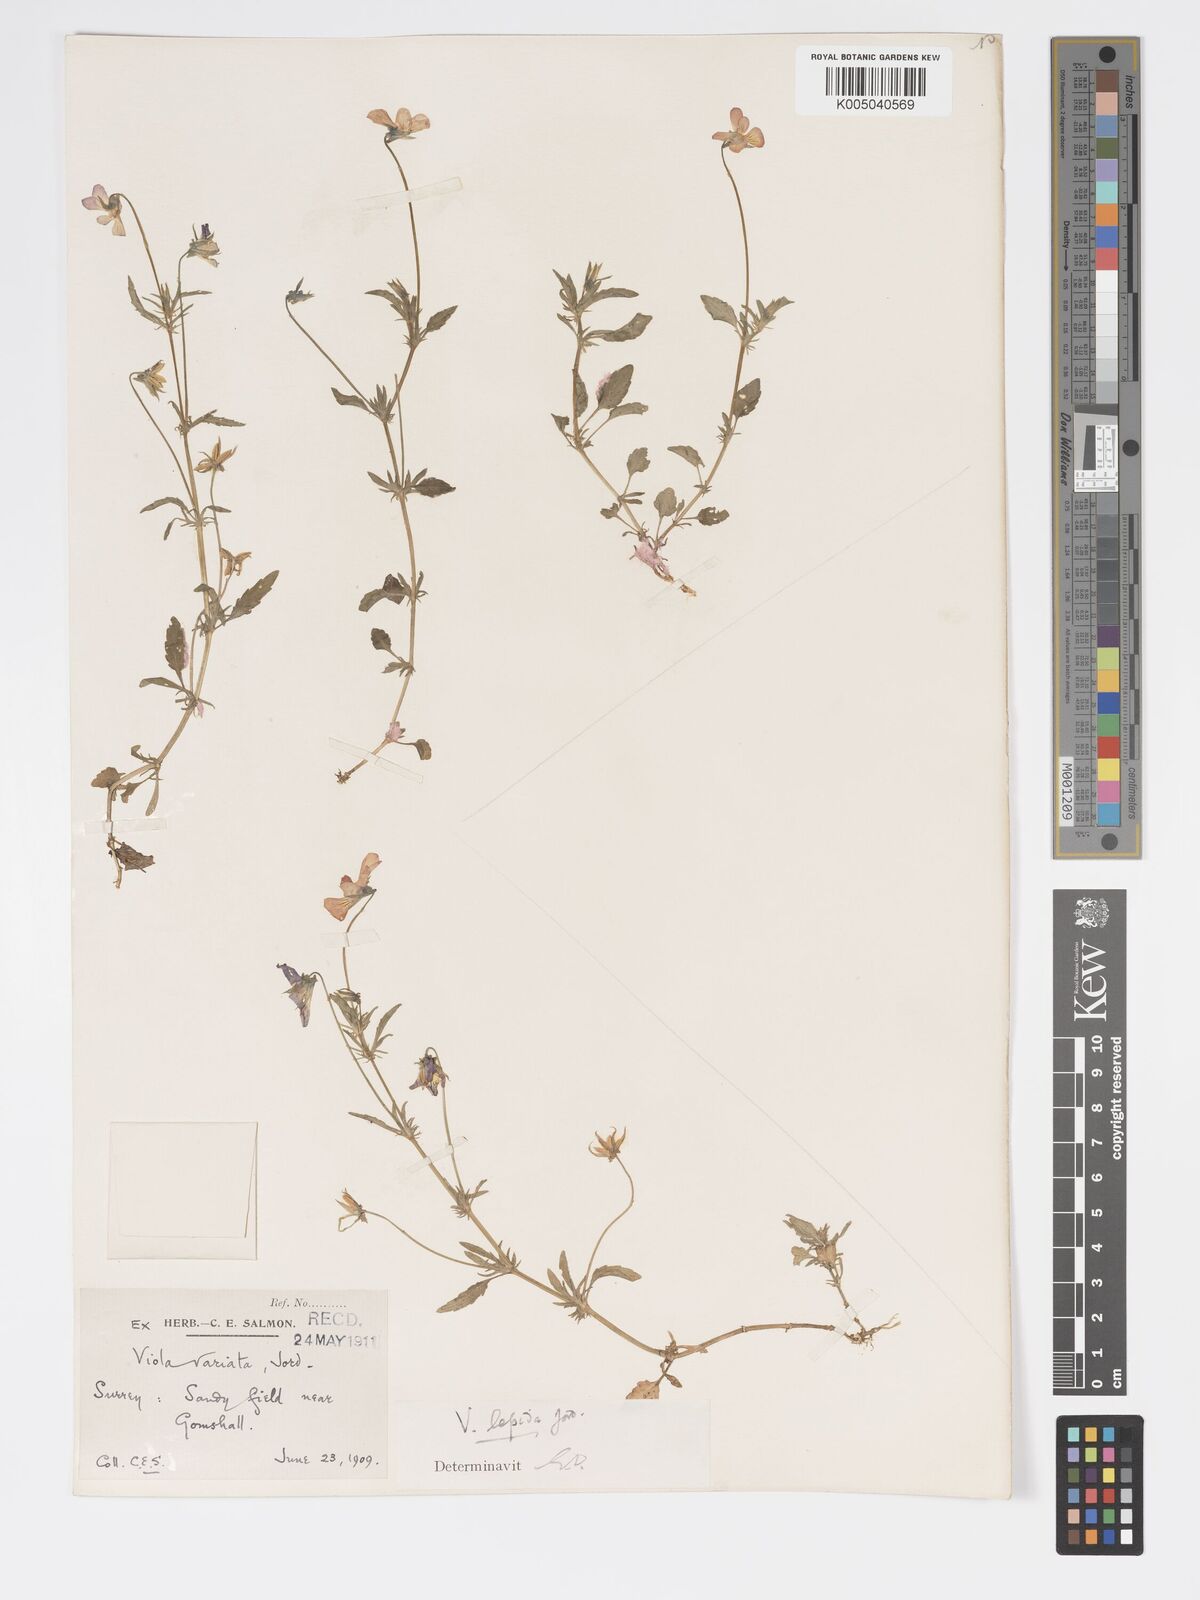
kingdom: Plantae
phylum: Tracheophyta
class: Magnoliopsida
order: Malpighiales
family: Violaceae
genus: Viola
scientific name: Viola arvensis
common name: Field pansy
